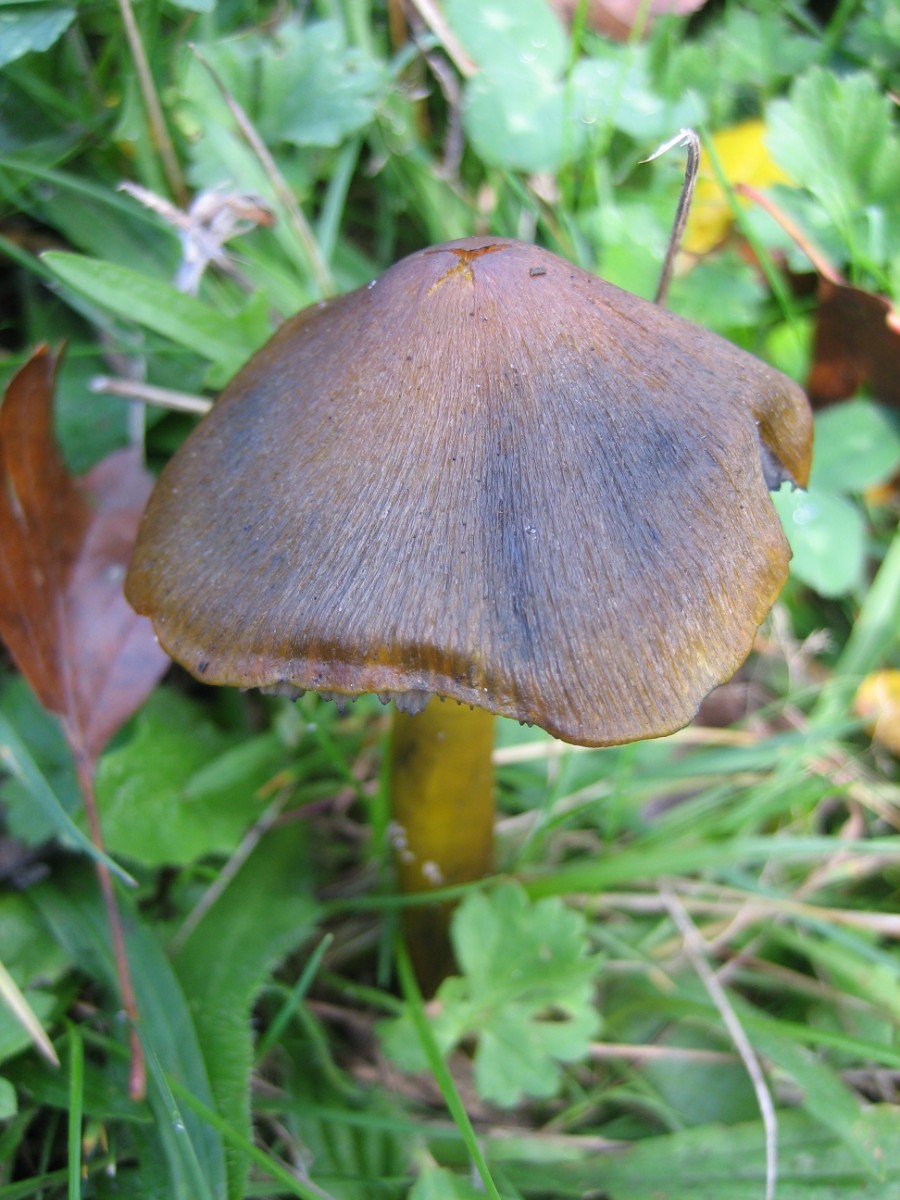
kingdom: Fungi
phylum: Basidiomycota
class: Agaricomycetes
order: Agaricales
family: Hygrophoraceae
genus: Hygrocybe
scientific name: Hygrocybe conica
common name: kegle-vokshat
